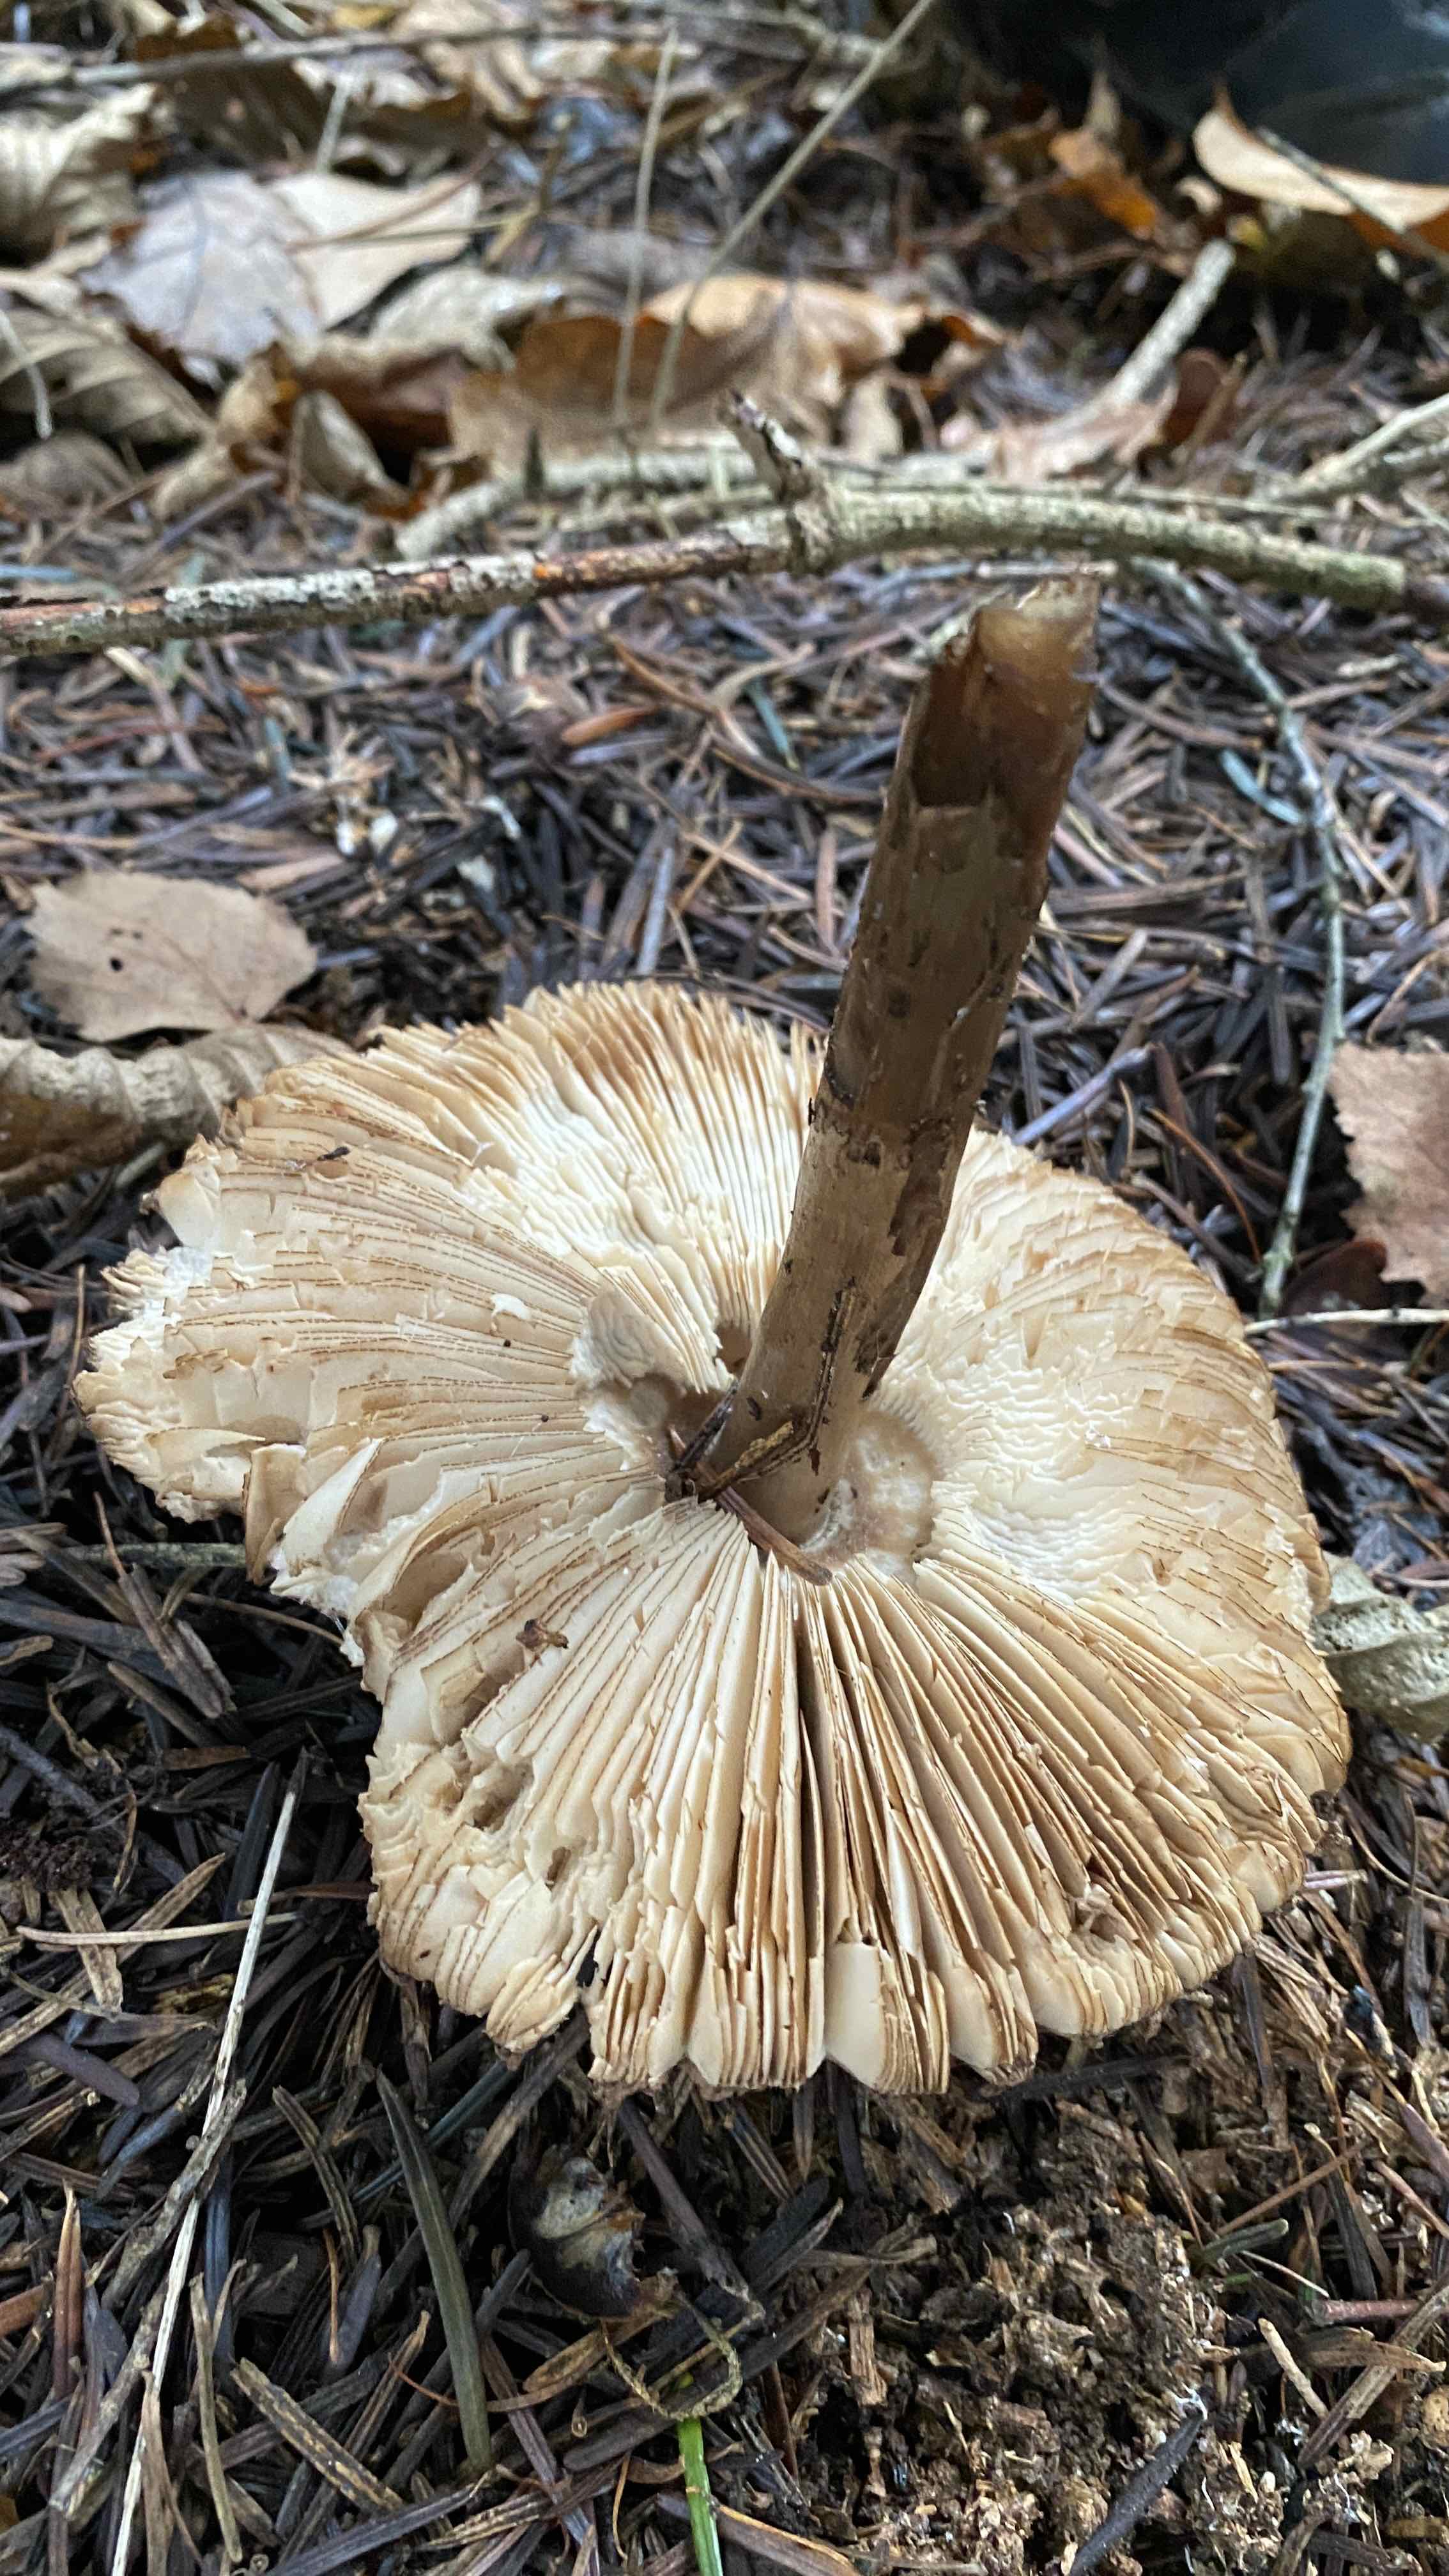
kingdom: Fungi
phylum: Basidiomycota
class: Agaricomycetes
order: Agaricales
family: Agaricaceae
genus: Chlorophyllum
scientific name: Chlorophyllum olivieri
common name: almindelig rabarberhat
